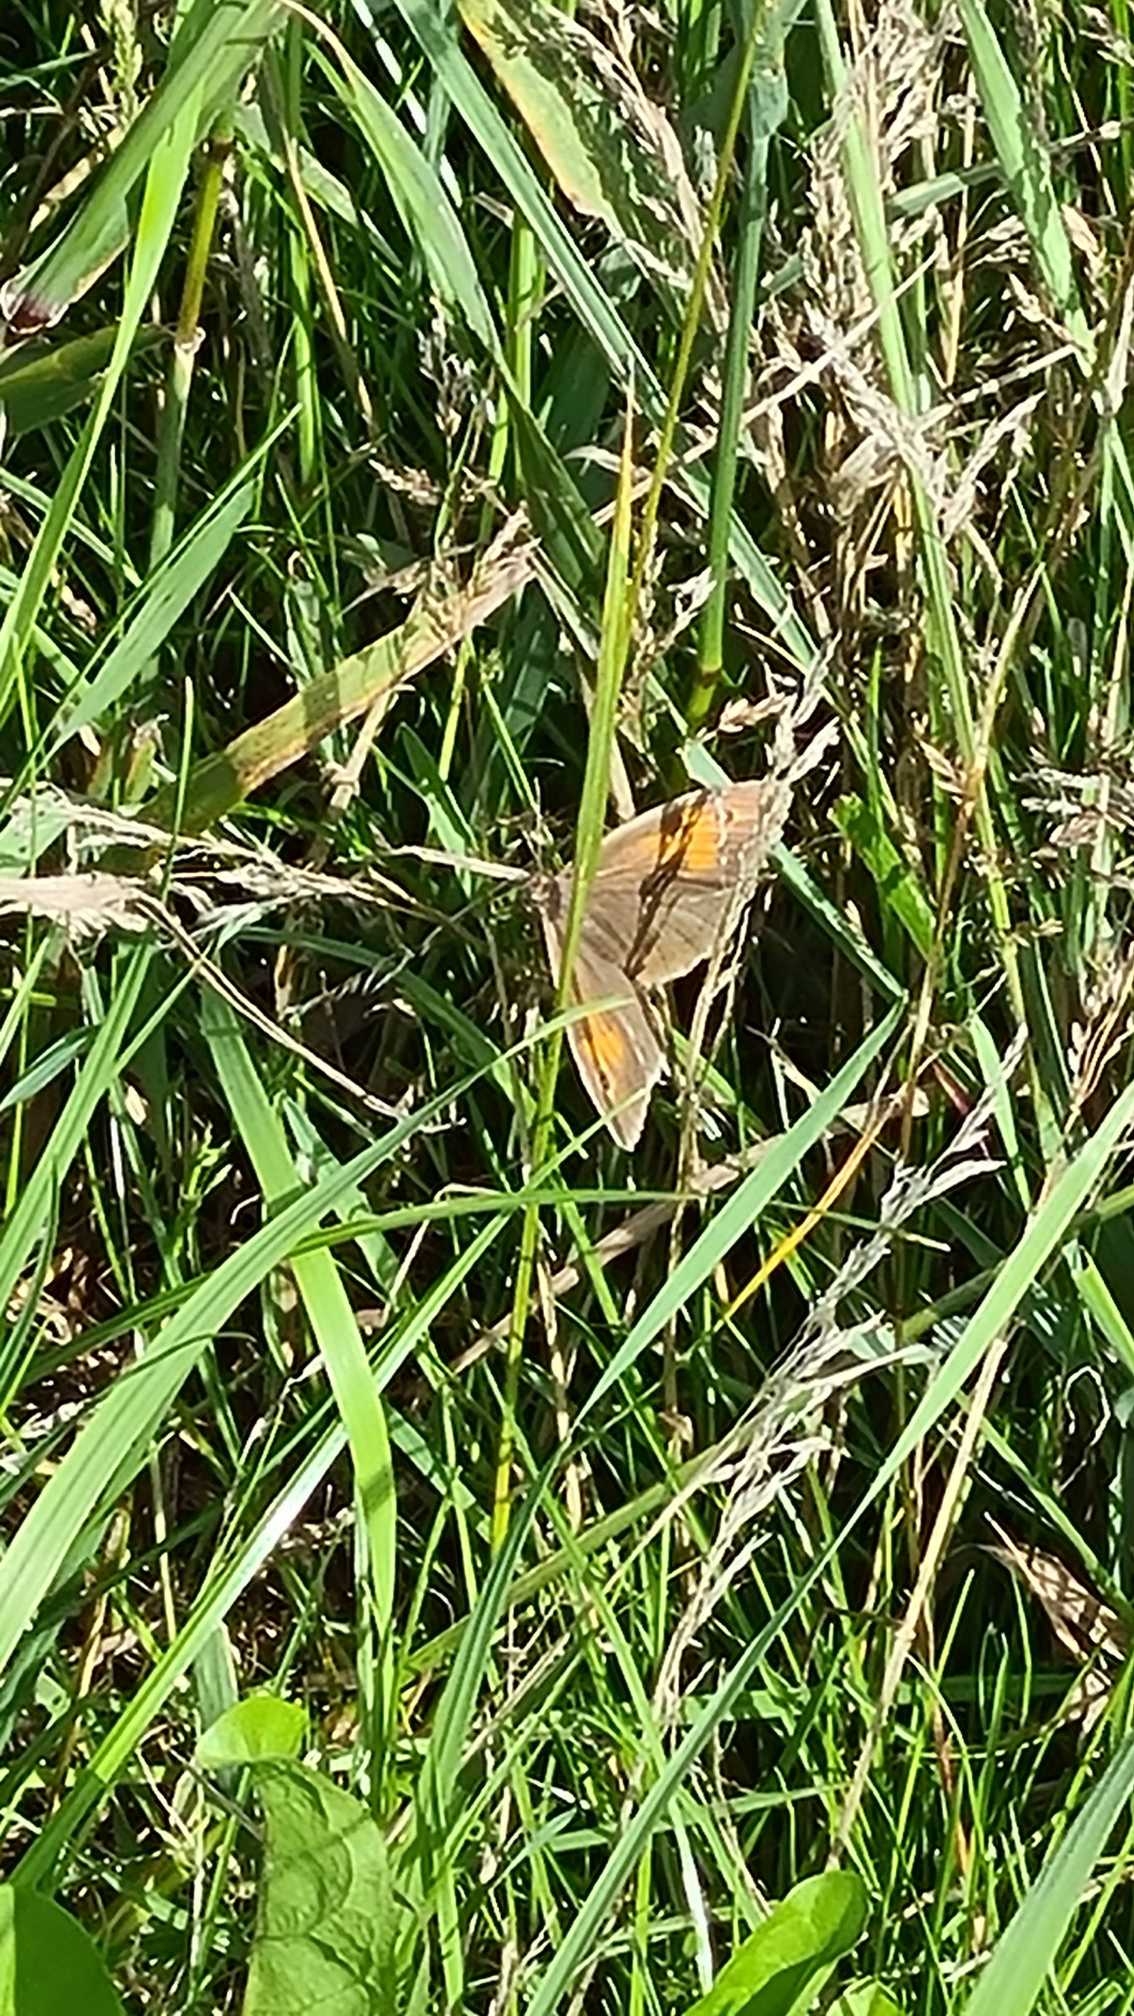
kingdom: Animalia
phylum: Arthropoda
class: Insecta
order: Lepidoptera
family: Nymphalidae
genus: Maniola
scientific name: Maniola jurtina
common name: Græsrandøje
